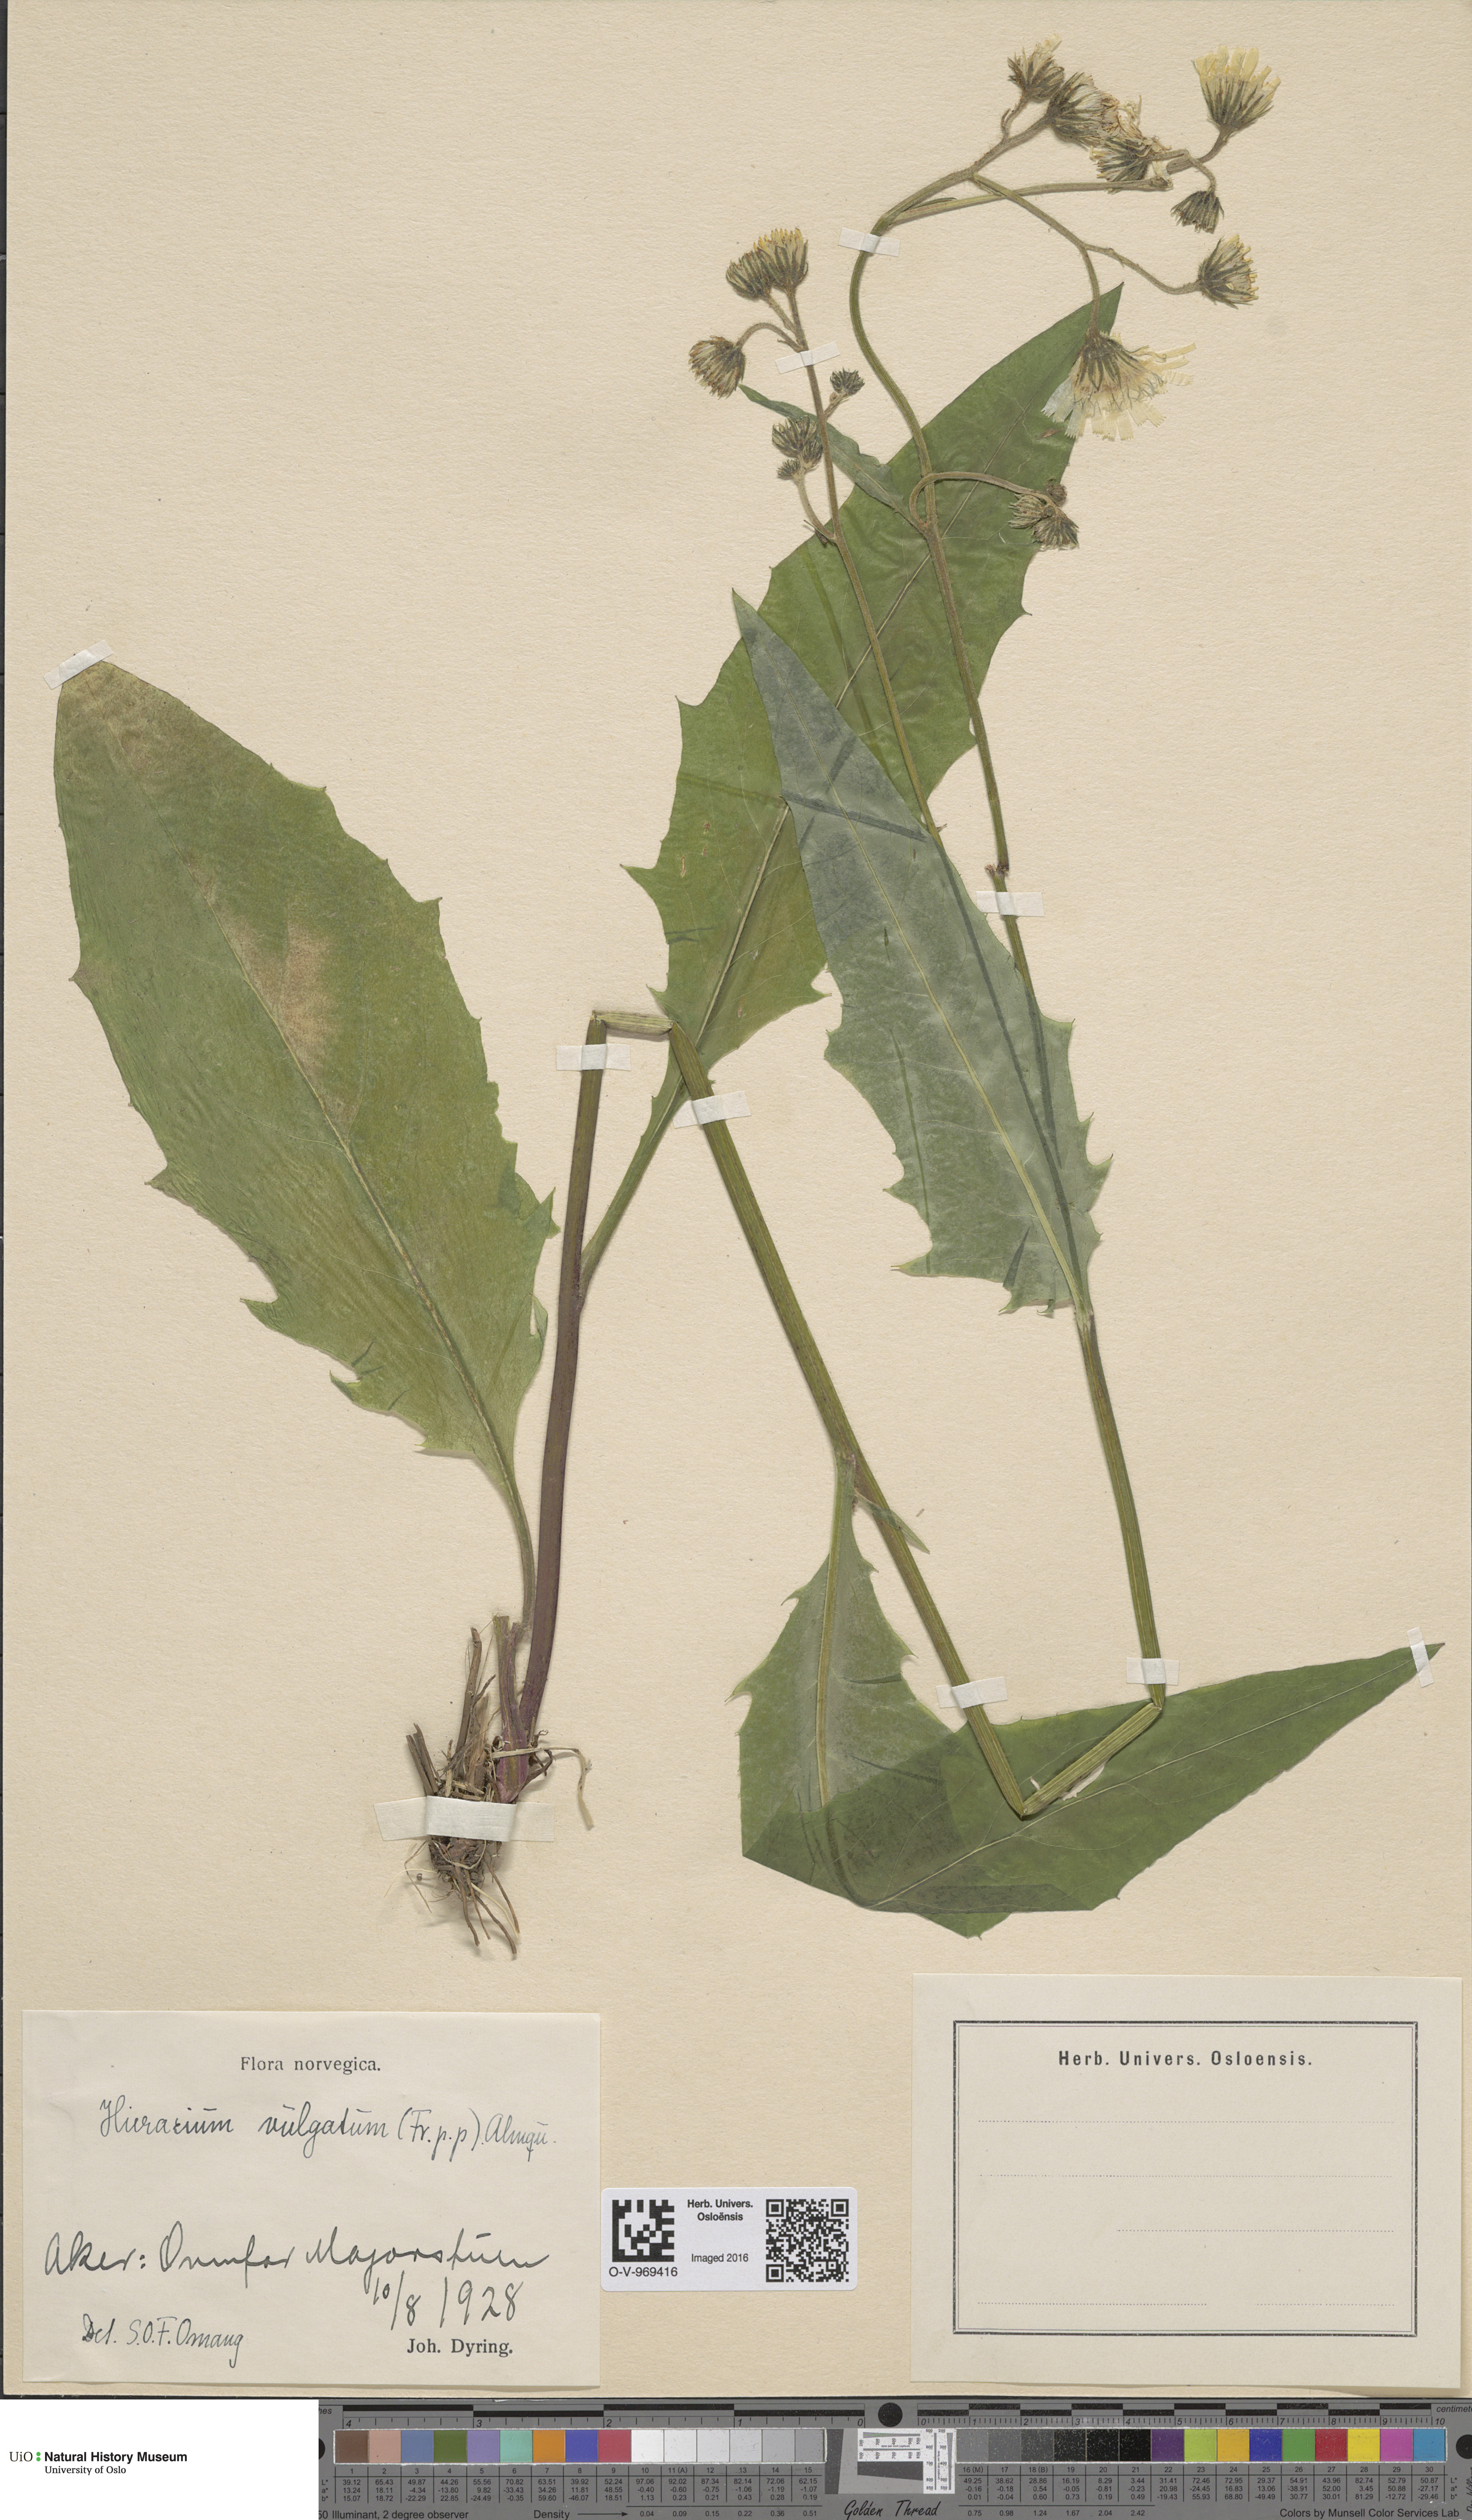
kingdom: Plantae
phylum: Tracheophyta
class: Magnoliopsida
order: Asterales
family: Asteraceae
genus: Hieracium
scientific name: Hieracium vulgatum
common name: Common hawkweed
